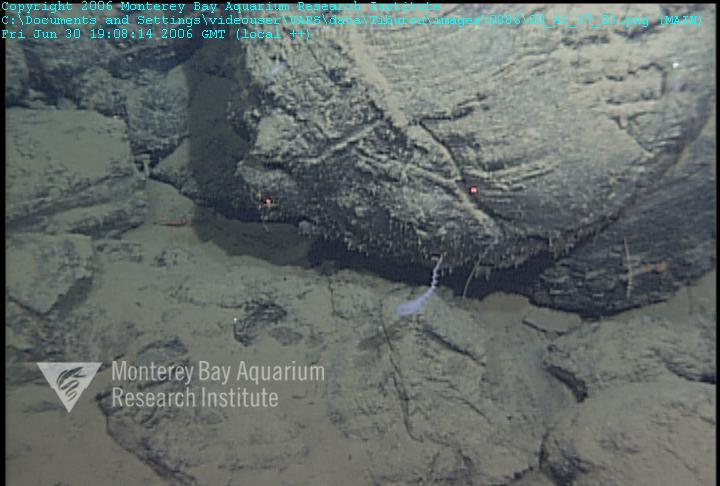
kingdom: Animalia
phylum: Porifera
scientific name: Porifera
